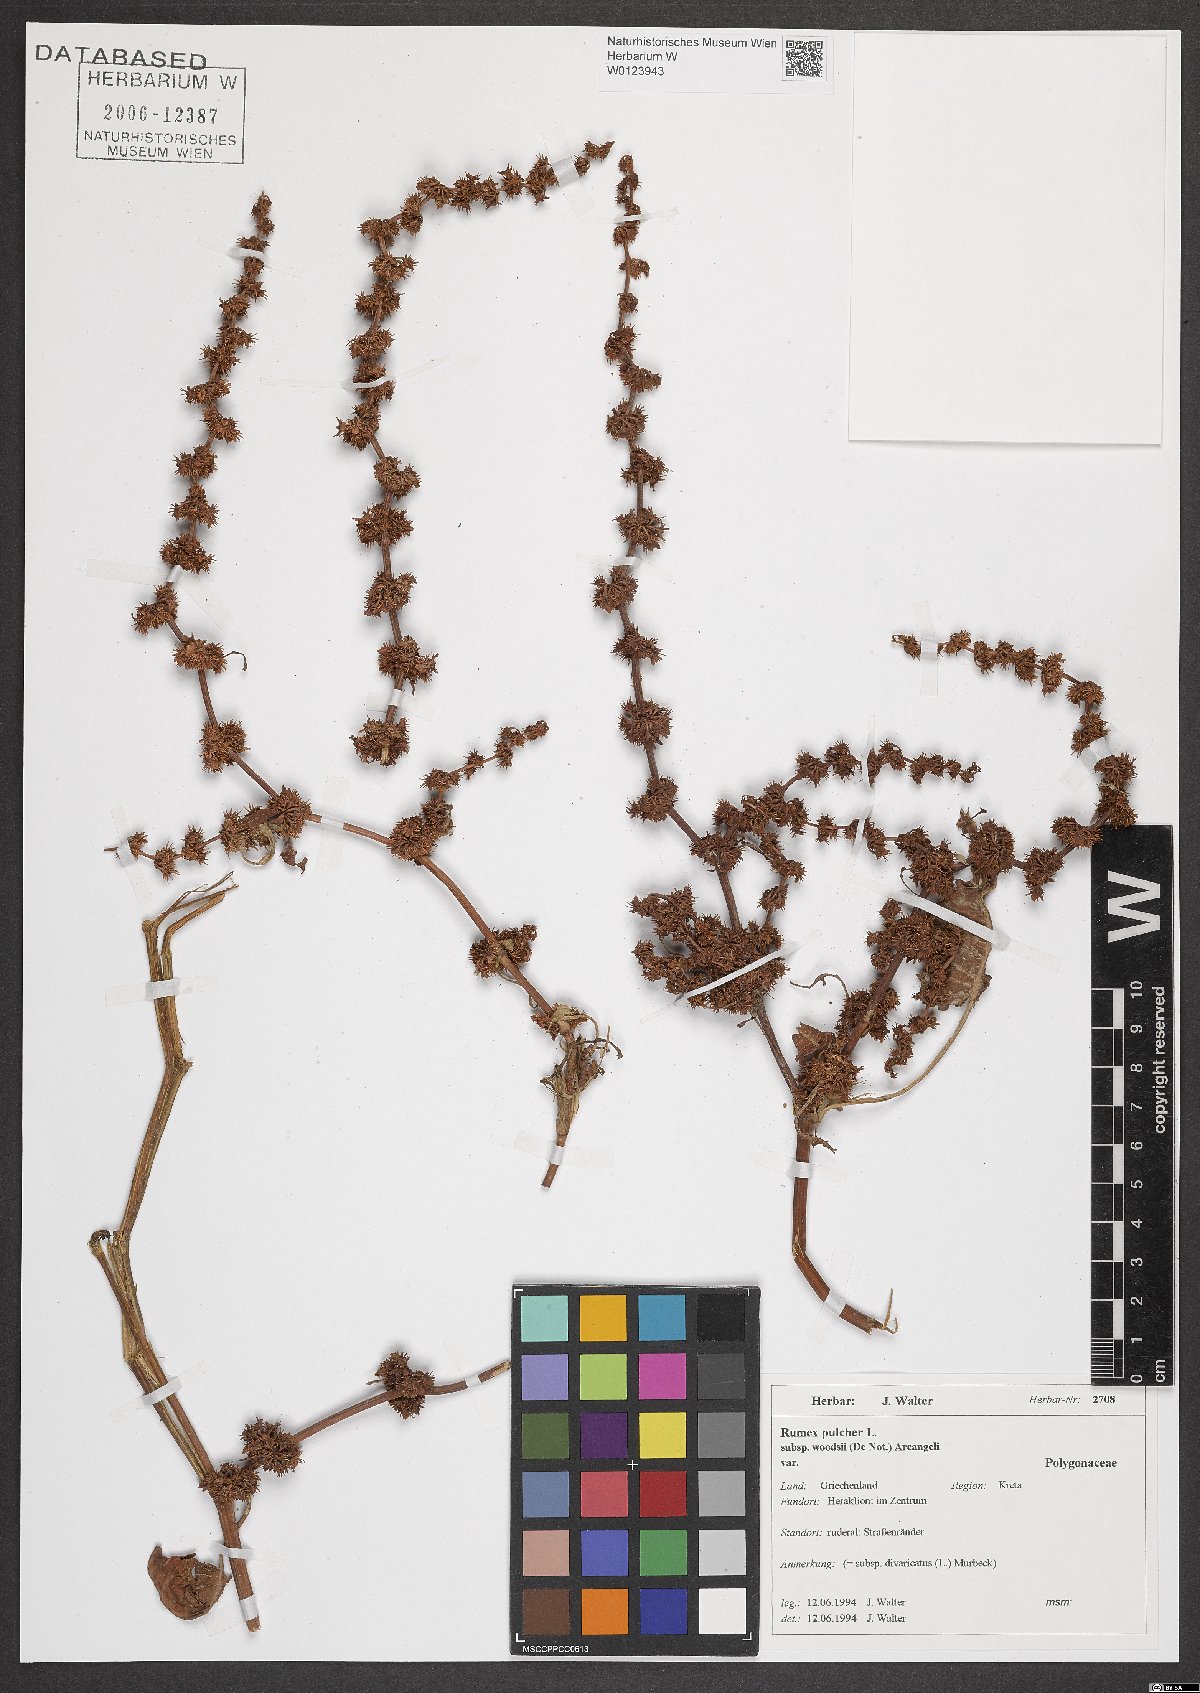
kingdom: Plantae
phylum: Tracheophyta
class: Magnoliopsida
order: Caryophyllales
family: Polygonaceae
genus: Rumex
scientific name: Rumex pulcher
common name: Fiddle dock
